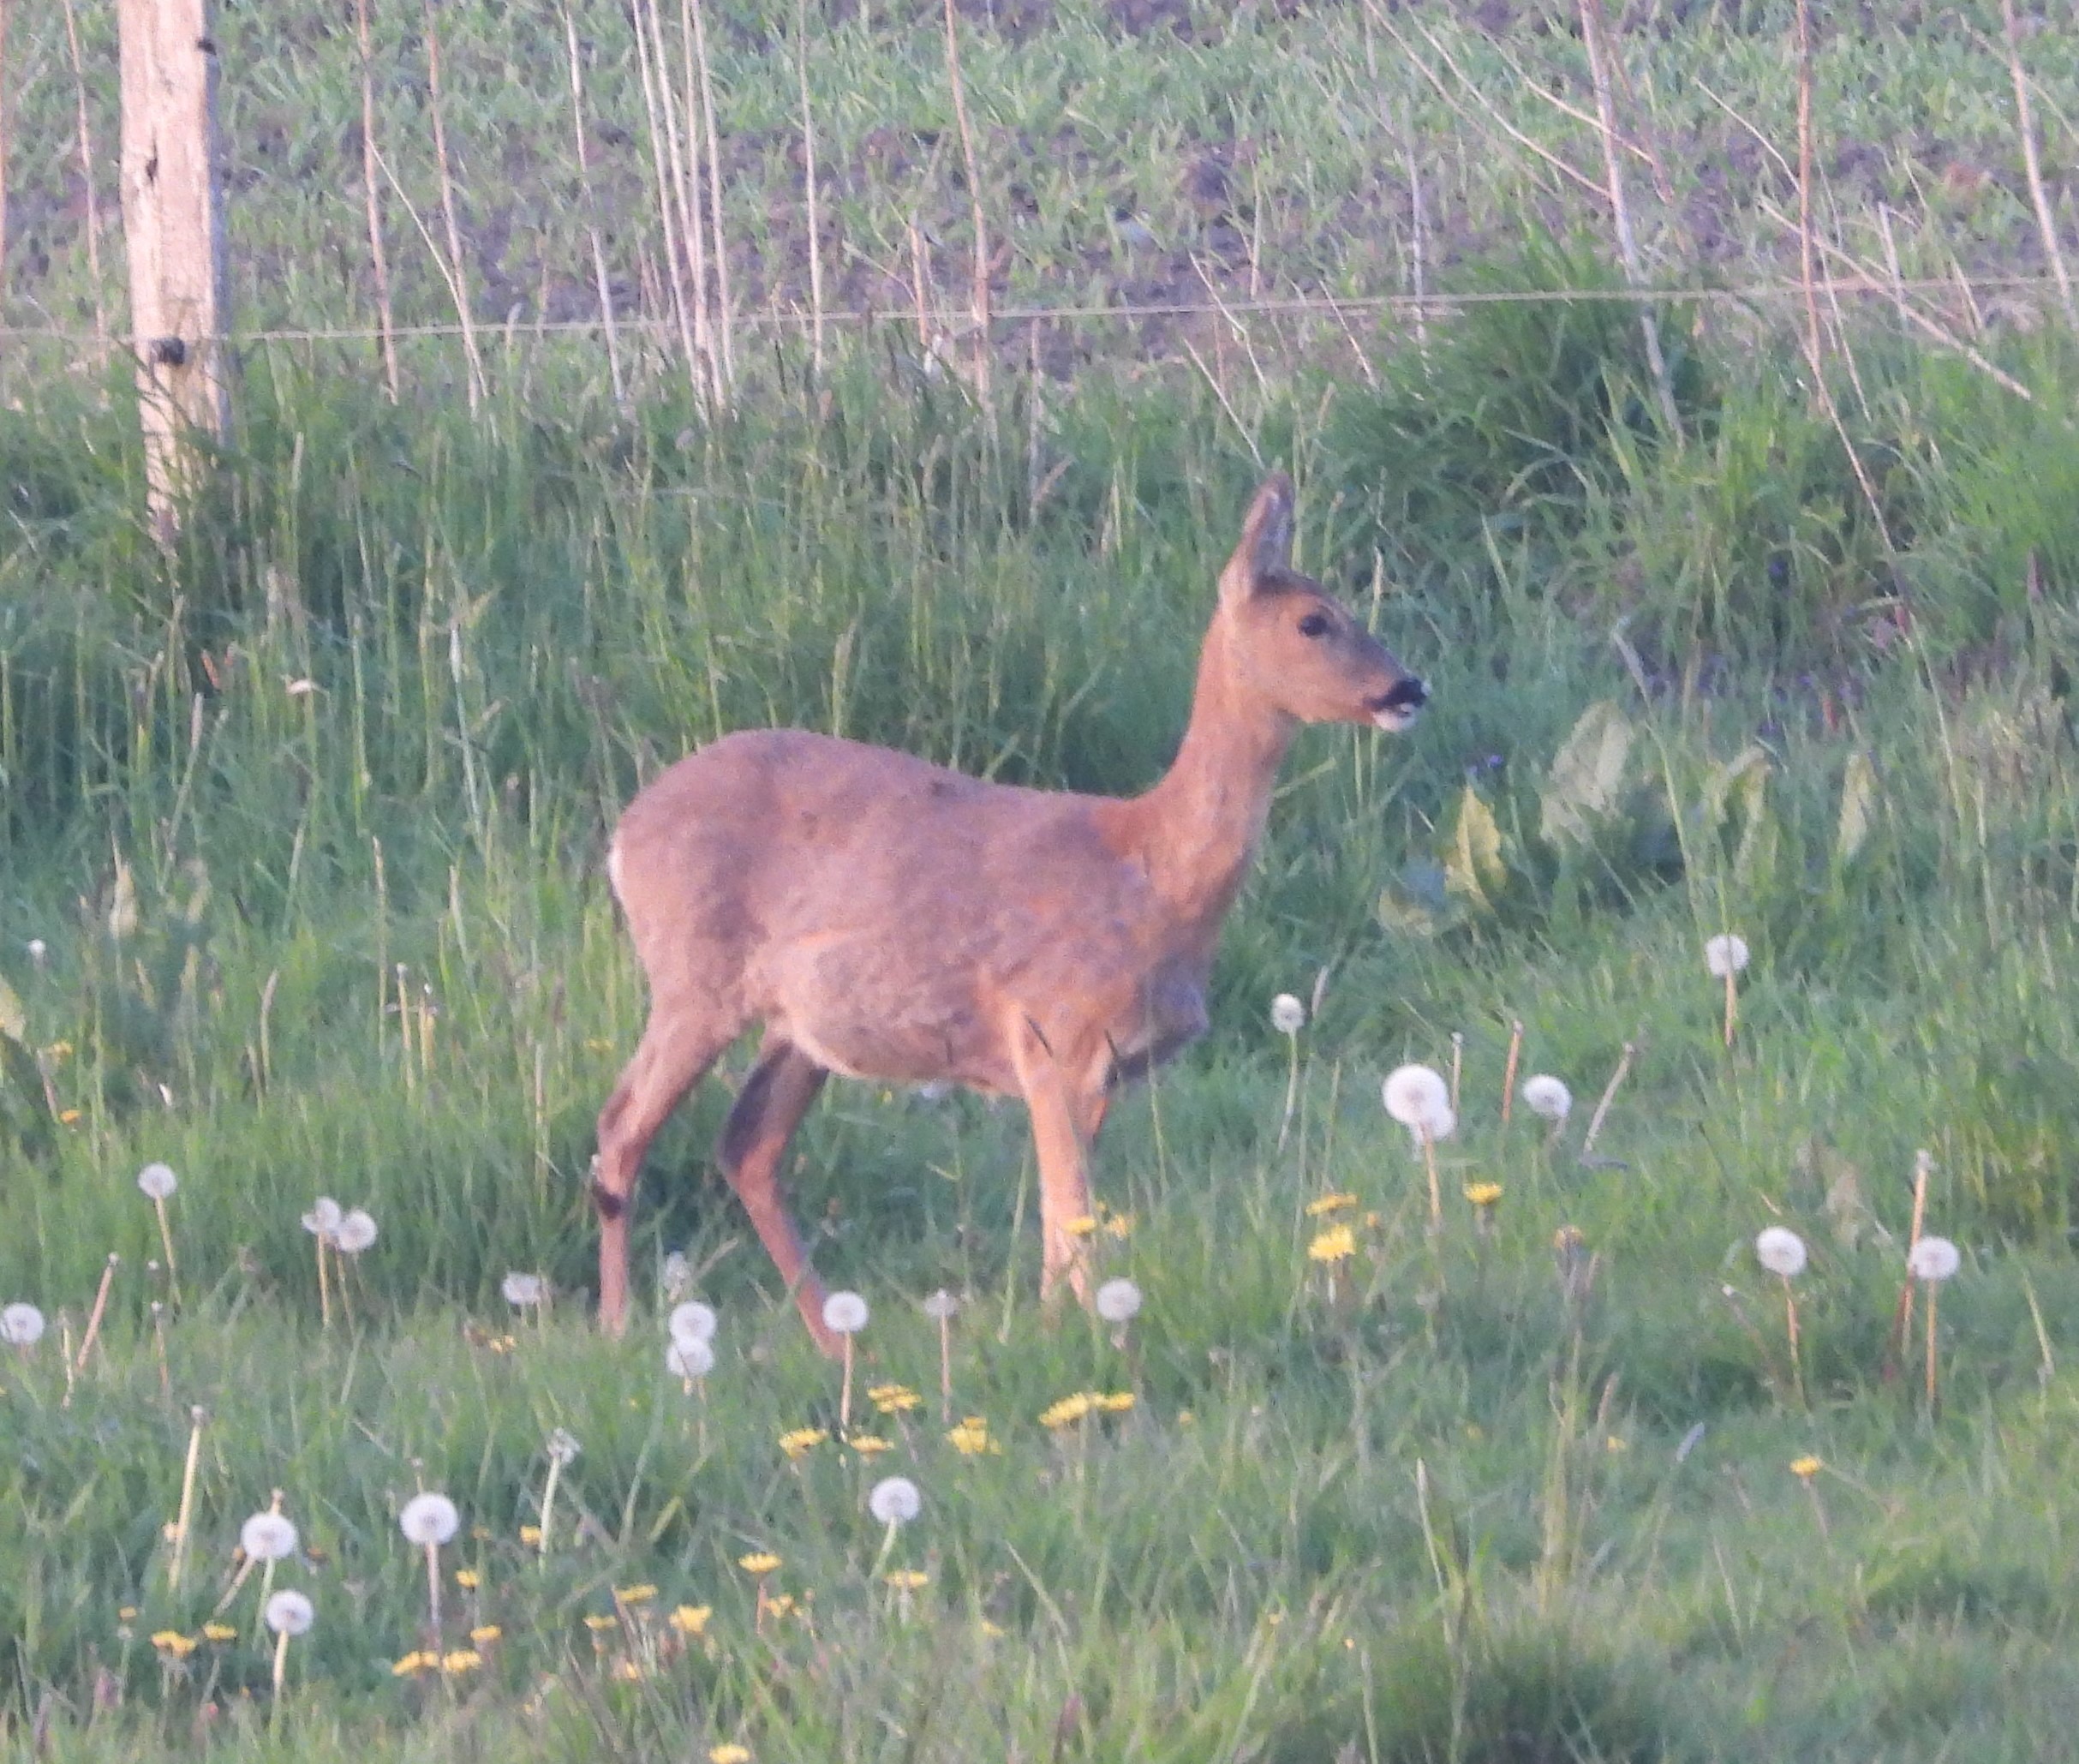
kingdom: Animalia
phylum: Chordata
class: Mammalia
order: Artiodactyla
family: Cervidae
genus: Capreolus
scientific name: Capreolus capreolus
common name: Rådyr
